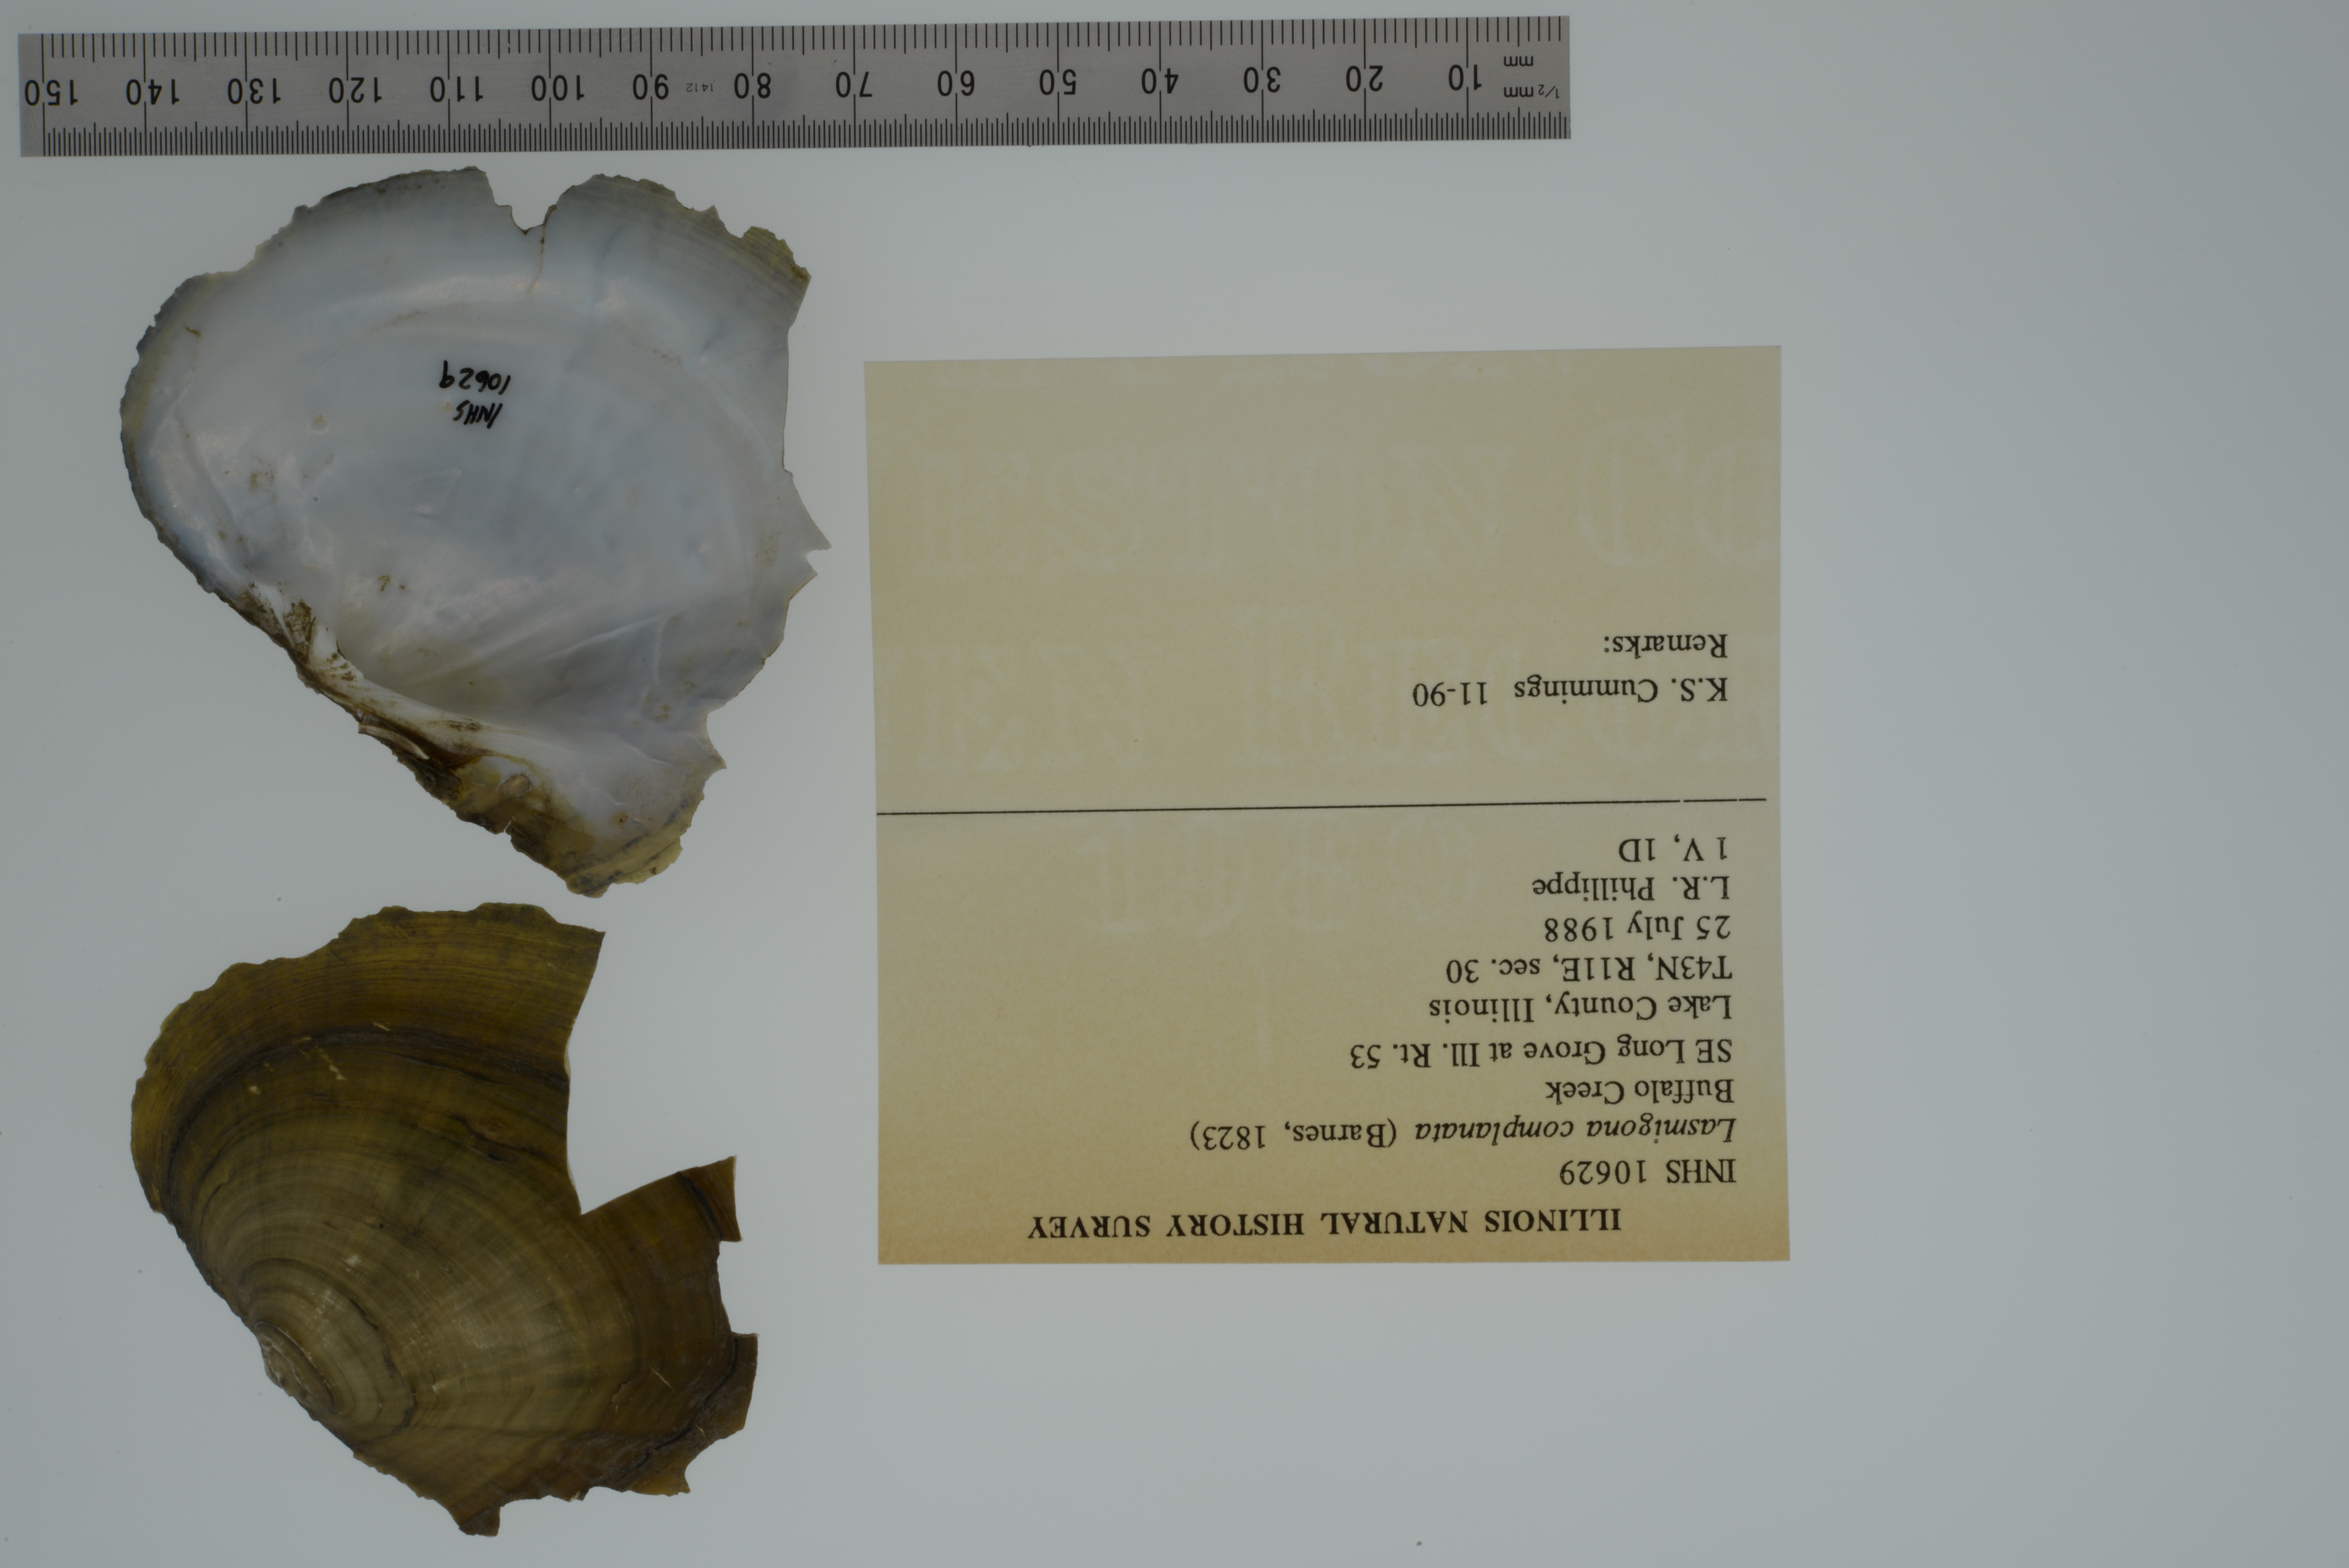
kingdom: Animalia
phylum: Mollusca
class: Bivalvia
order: Unionida
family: Unionidae
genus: Lasmigona
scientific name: Lasmigona complanata
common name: White heelsplitter
